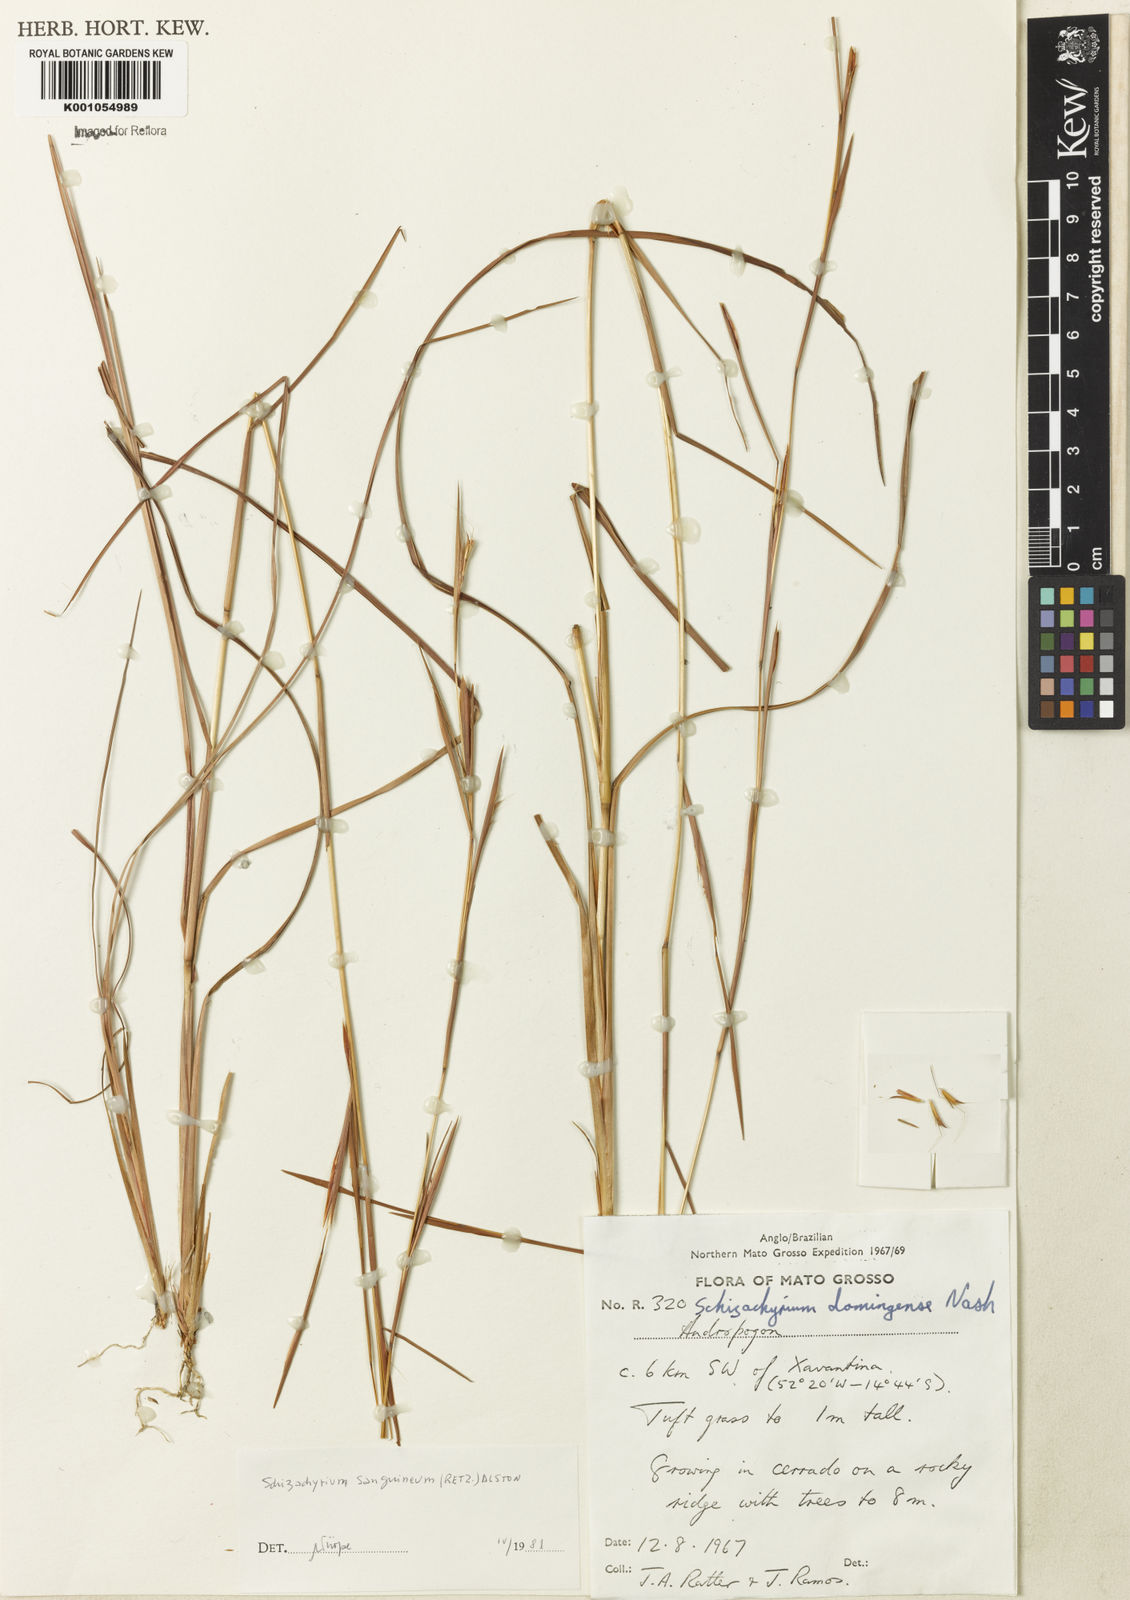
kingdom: Plantae
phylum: Tracheophyta
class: Liliopsida
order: Poales
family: Poaceae
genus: Schizachyrium
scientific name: Schizachyrium sanguineum
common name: Crimson bluestem
